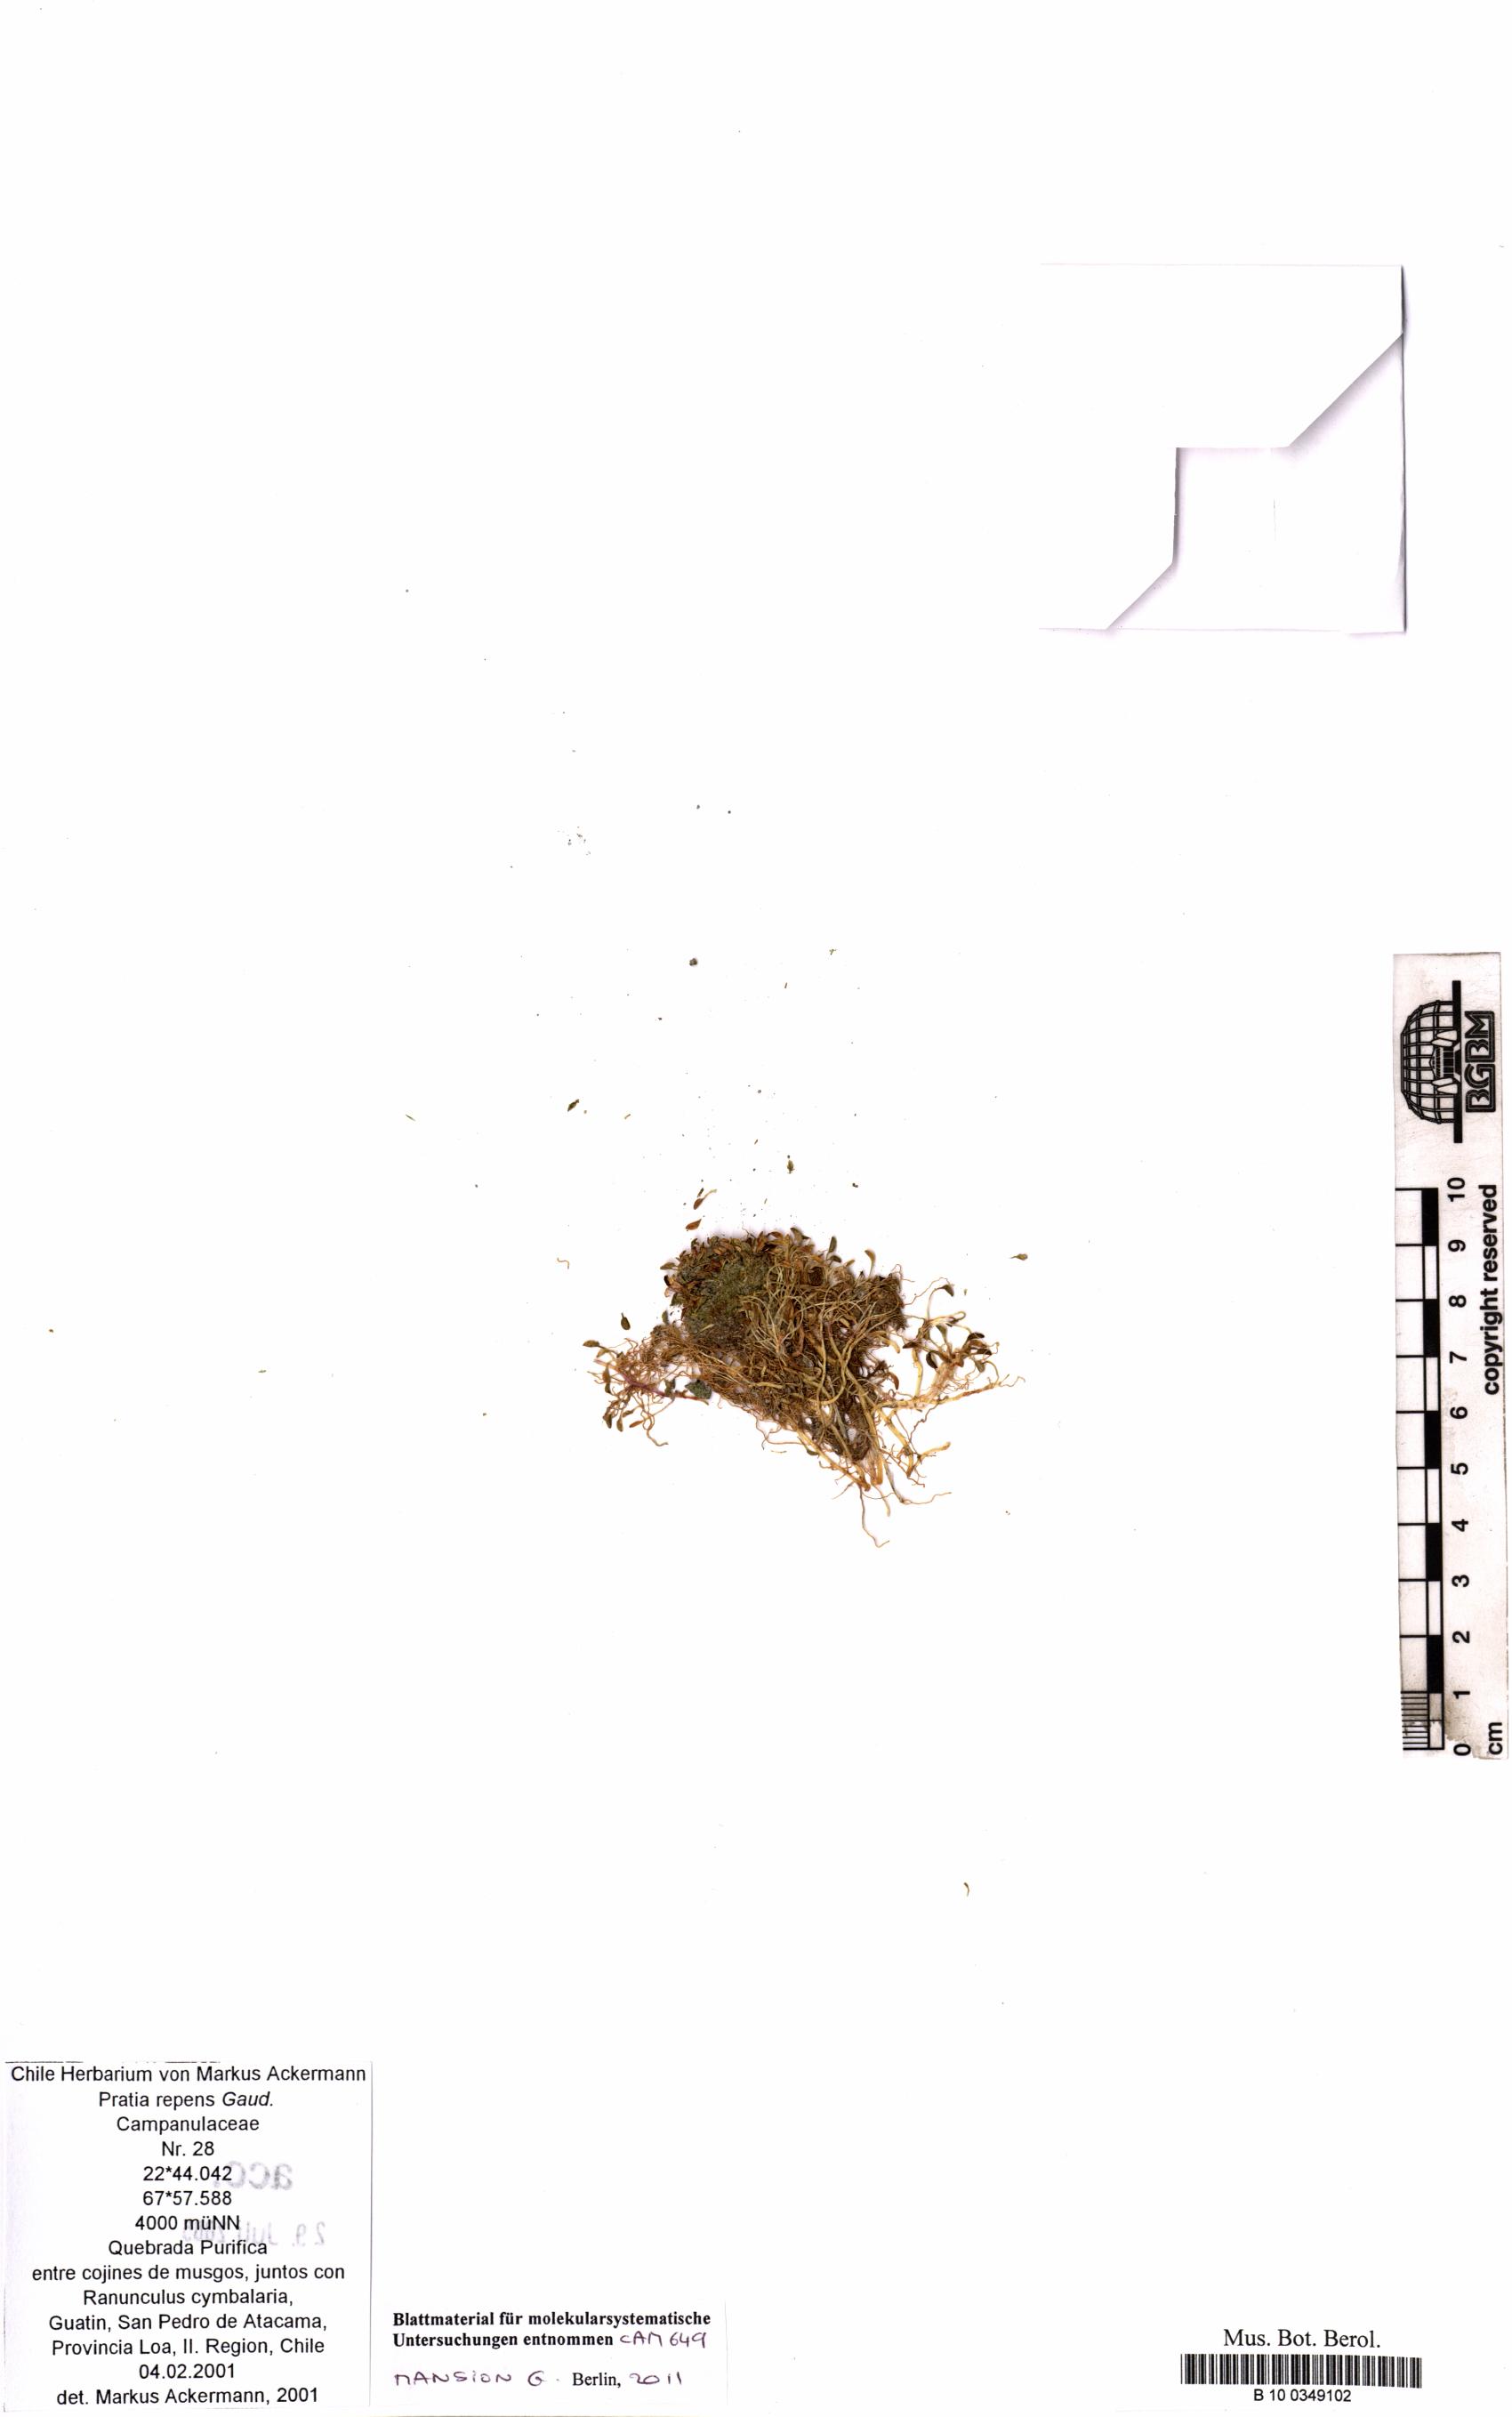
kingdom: Plantae
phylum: Tracheophyta
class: Magnoliopsida
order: Asterales
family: Campanulaceae
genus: Lobelia
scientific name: Lobelia oligophylla
